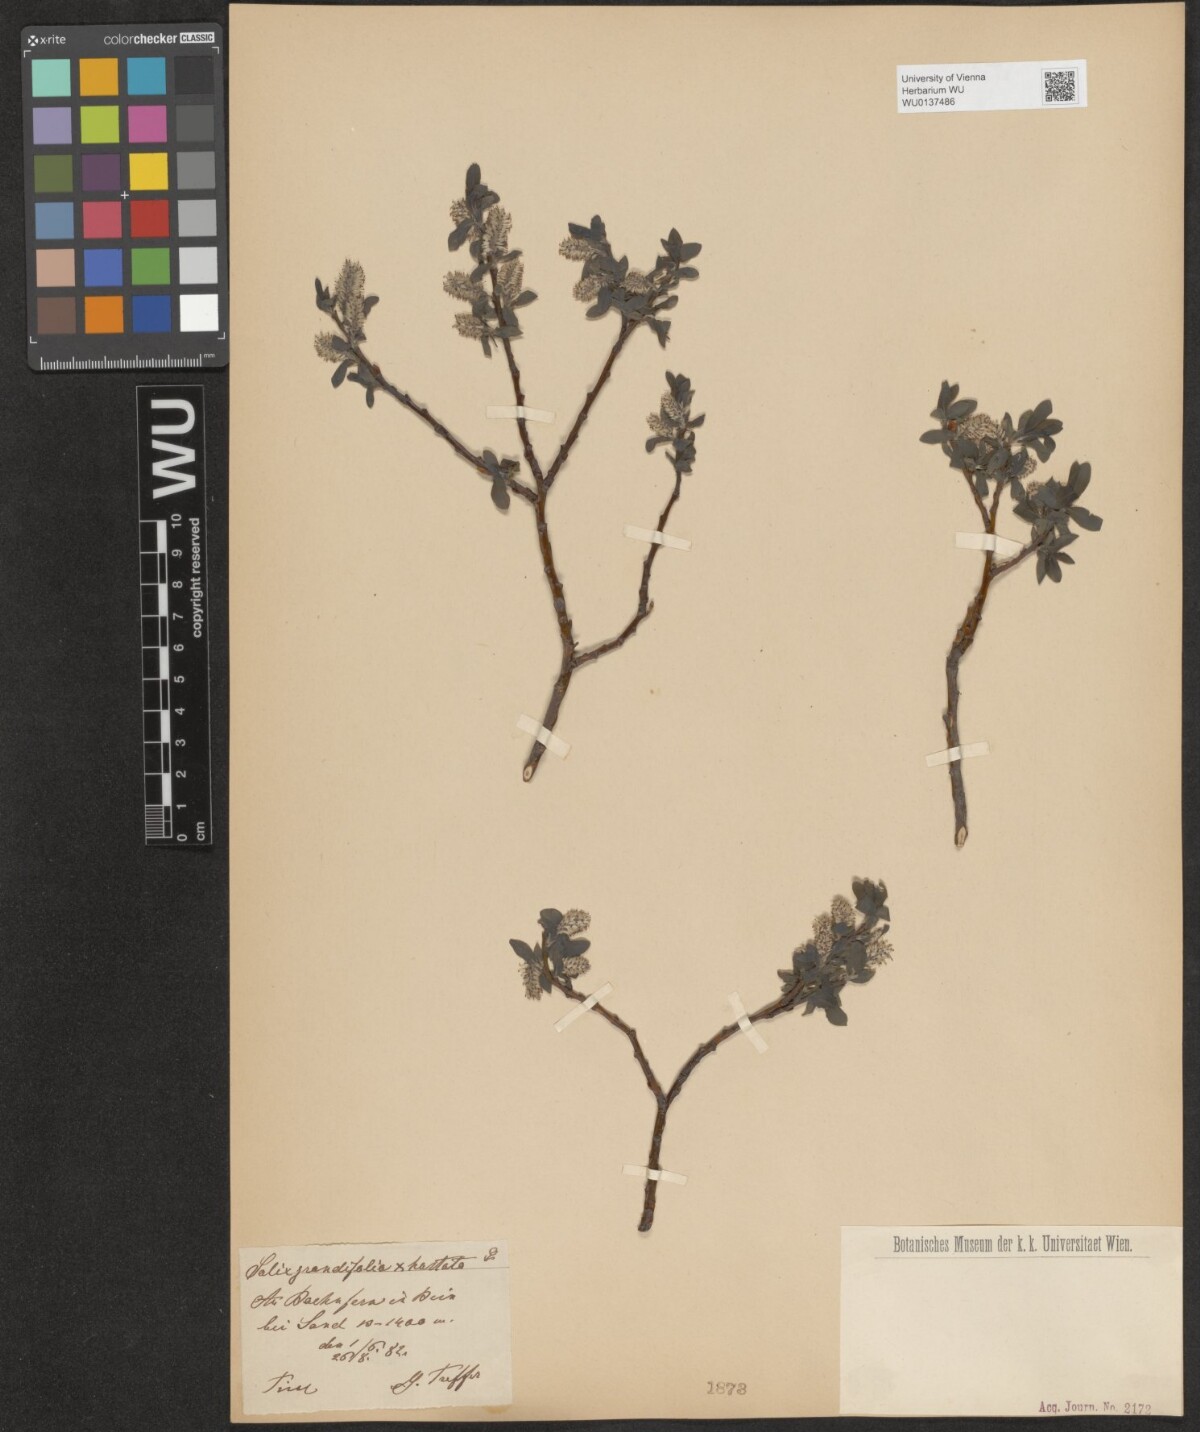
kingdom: Plantae
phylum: Tracheophyta
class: Magnoliopsida
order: Malpighiales
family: Salicaceae
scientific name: Salicaceae
